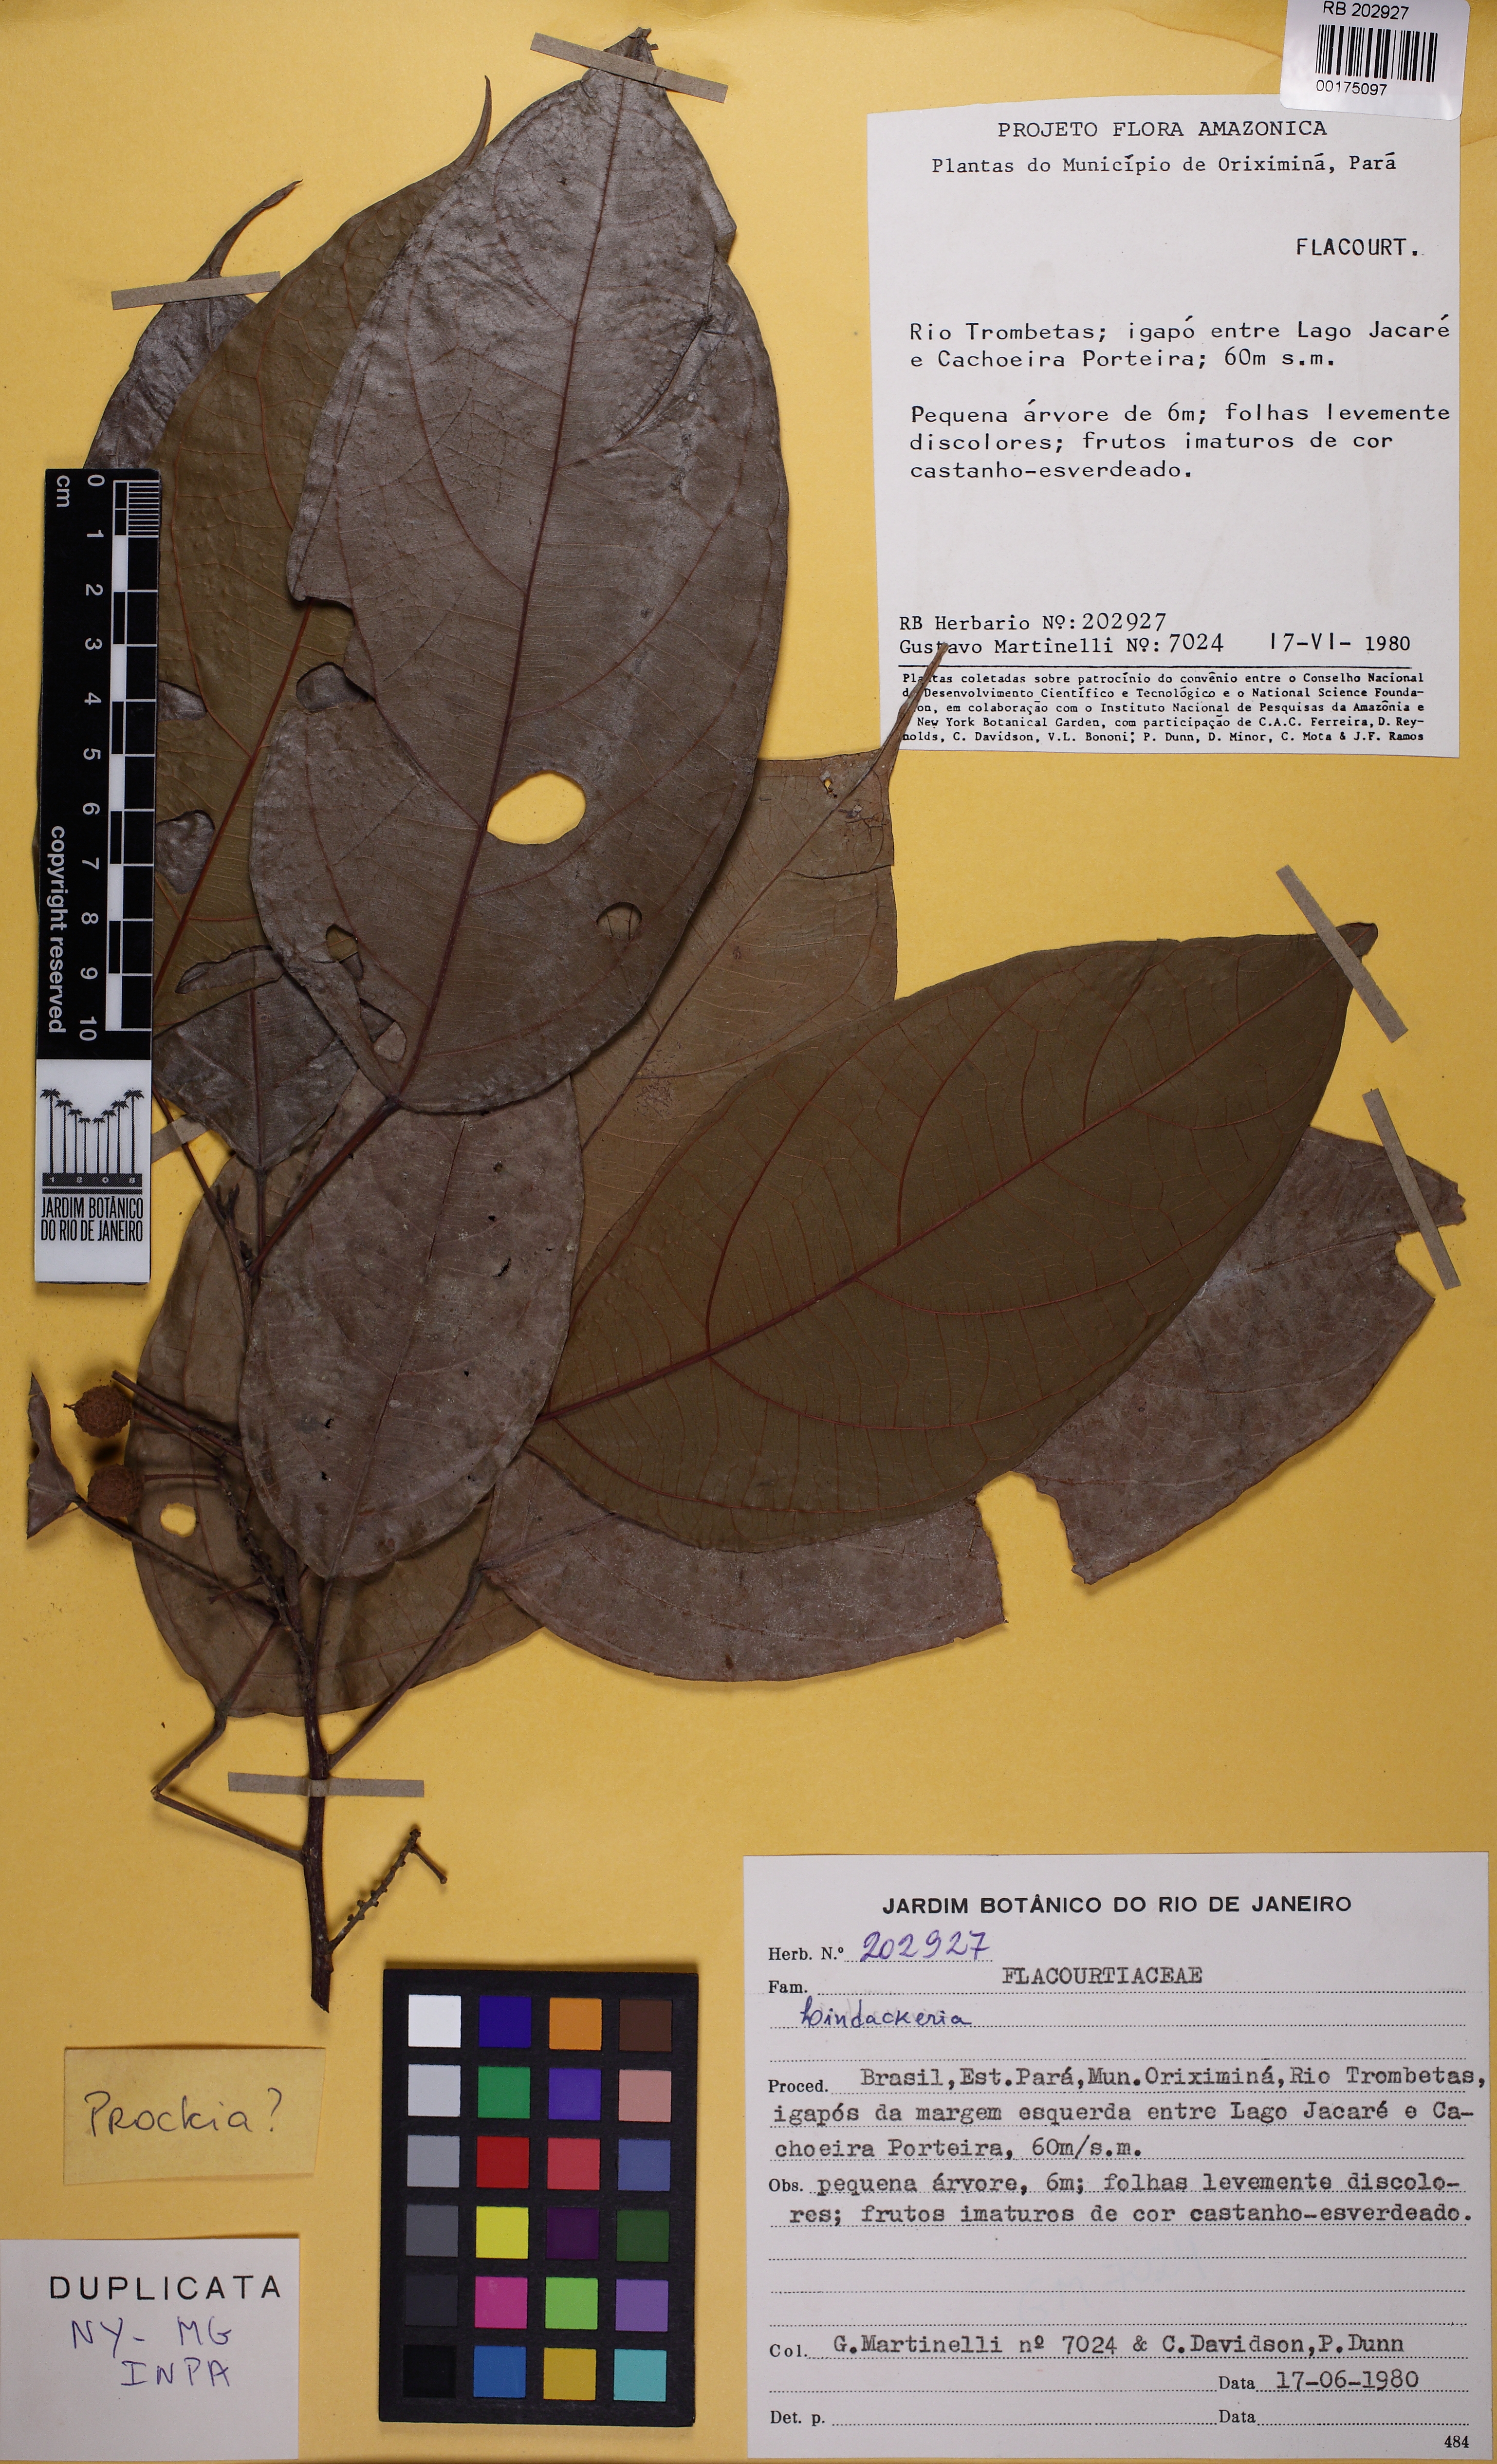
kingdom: Plantae
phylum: Tracheophyta
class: Magnoliopsida
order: Malpighiales
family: Achariaceae
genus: Lindackeria
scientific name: Lindackeria
